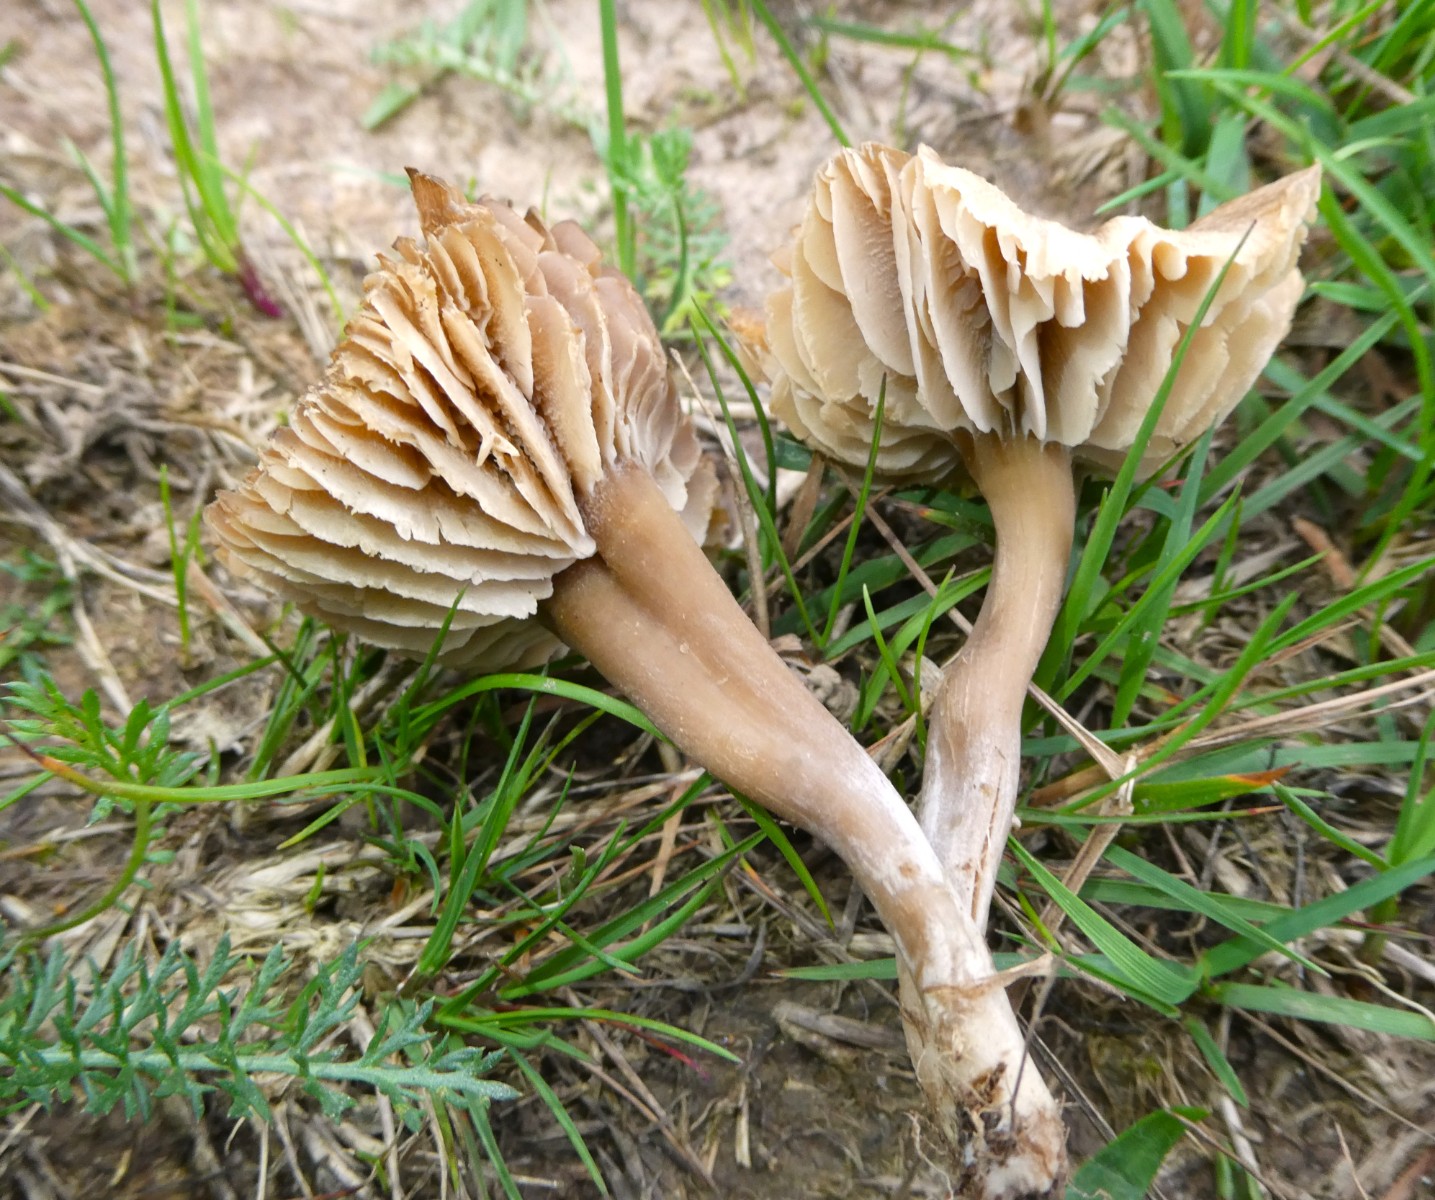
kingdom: Fungi
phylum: Basidiomycota
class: Agaricomycetes
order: Agaricales
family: Clavariaceae
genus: Camarophyllopsis
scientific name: Camarophyllopsis schulzeri
